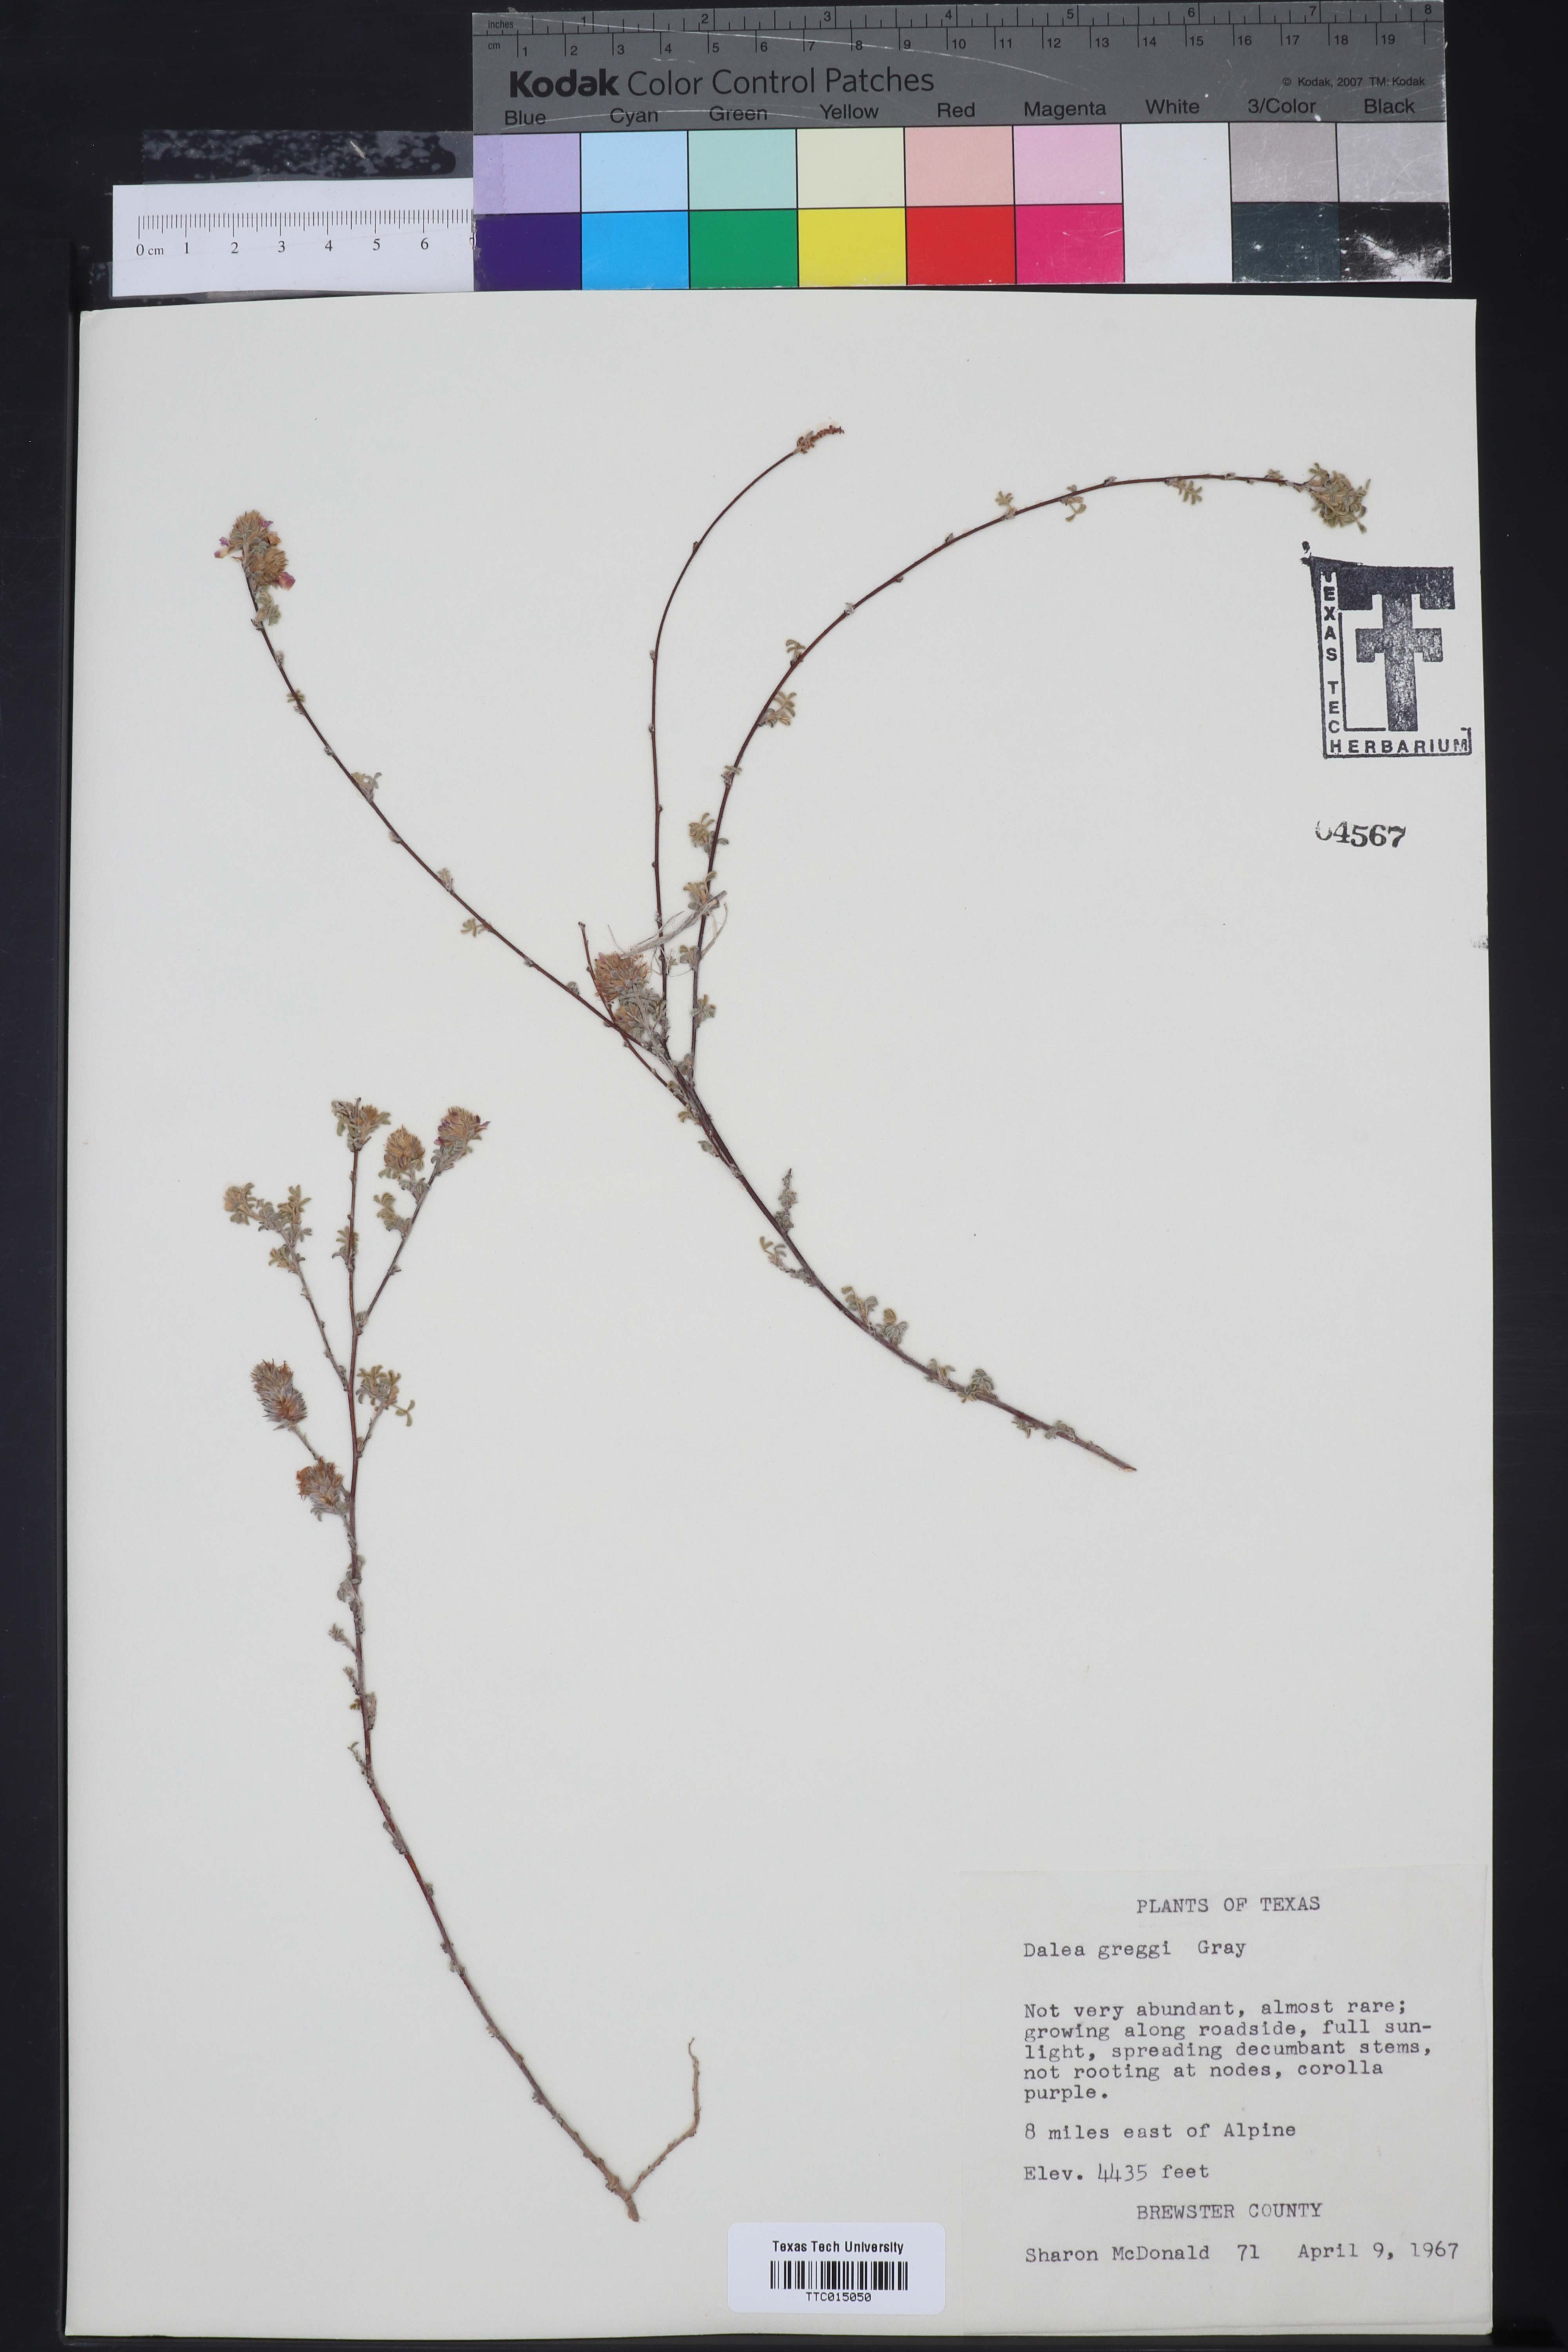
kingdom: Plantae
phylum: Tracheophyta
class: Magnoliopsida
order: Fabales
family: Fabaceae
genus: Dalea
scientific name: Dalea greggii
